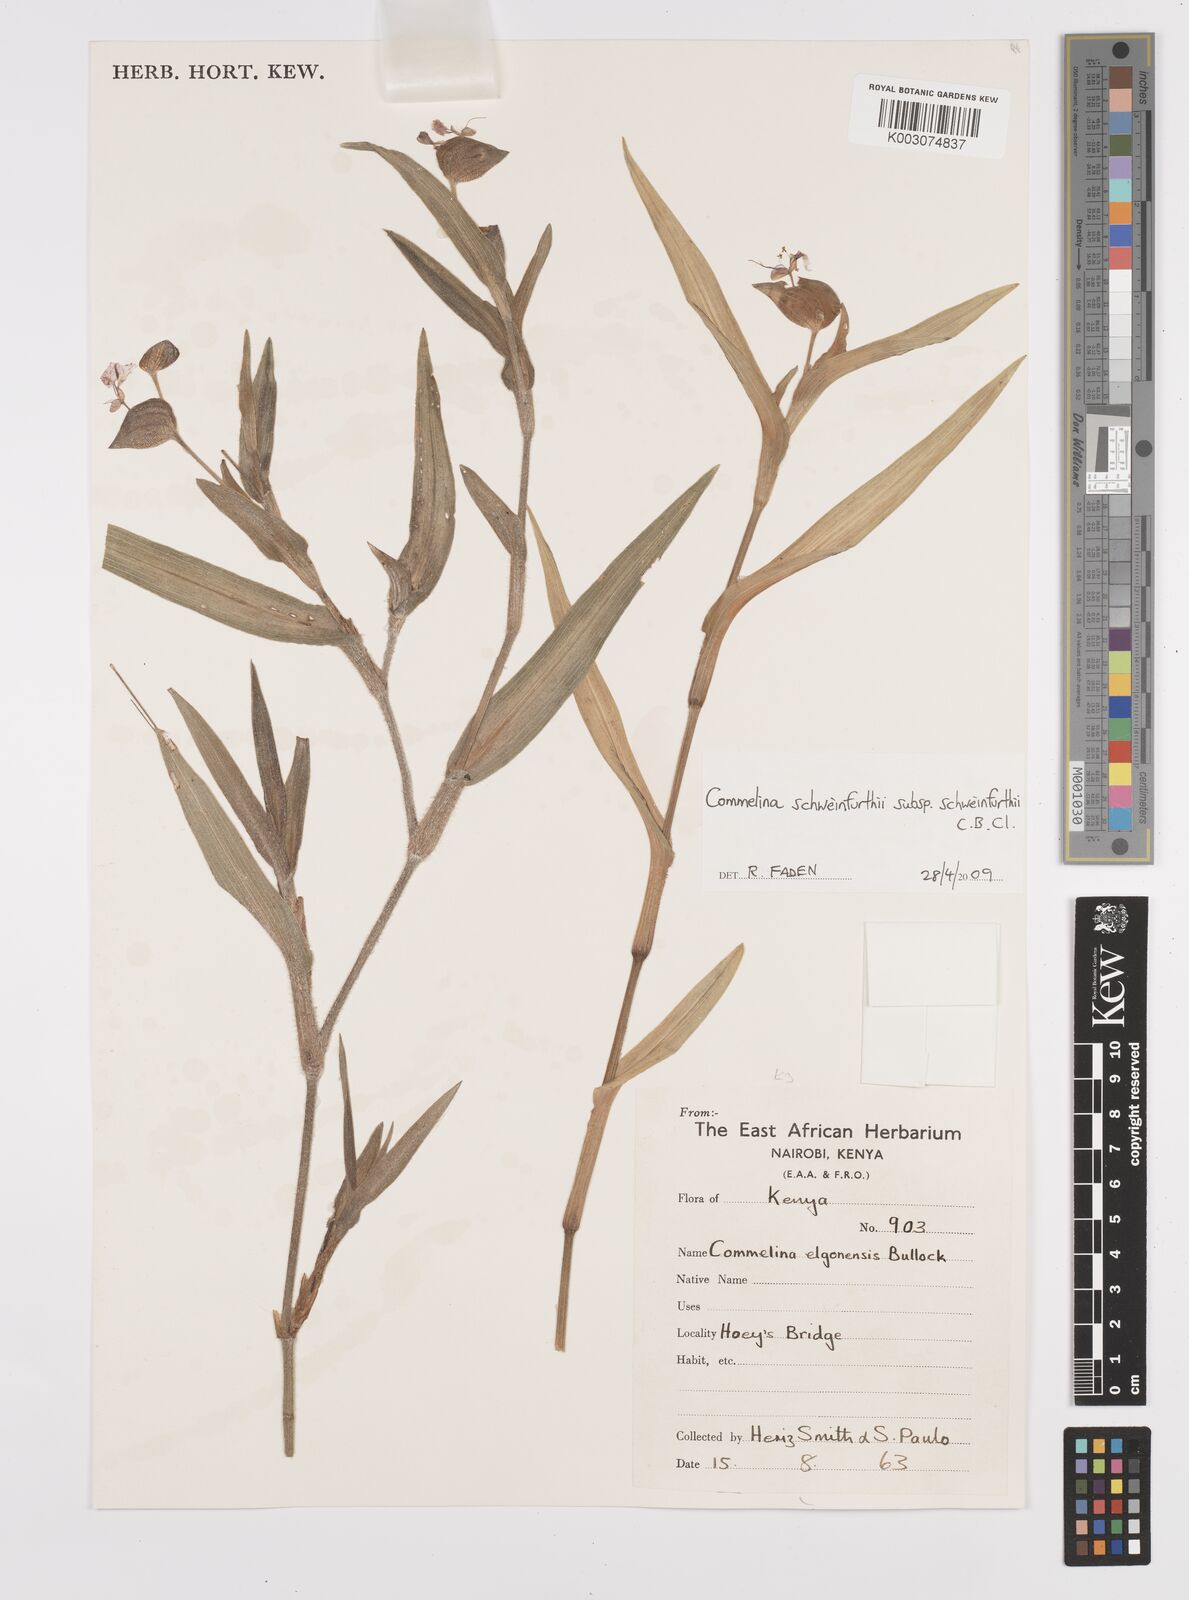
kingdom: Plantae
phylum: Tracheophyta
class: Liliopsida
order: Commelinales
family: Commelinaceae
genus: Commelina
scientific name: Commelina schweinfurthii
